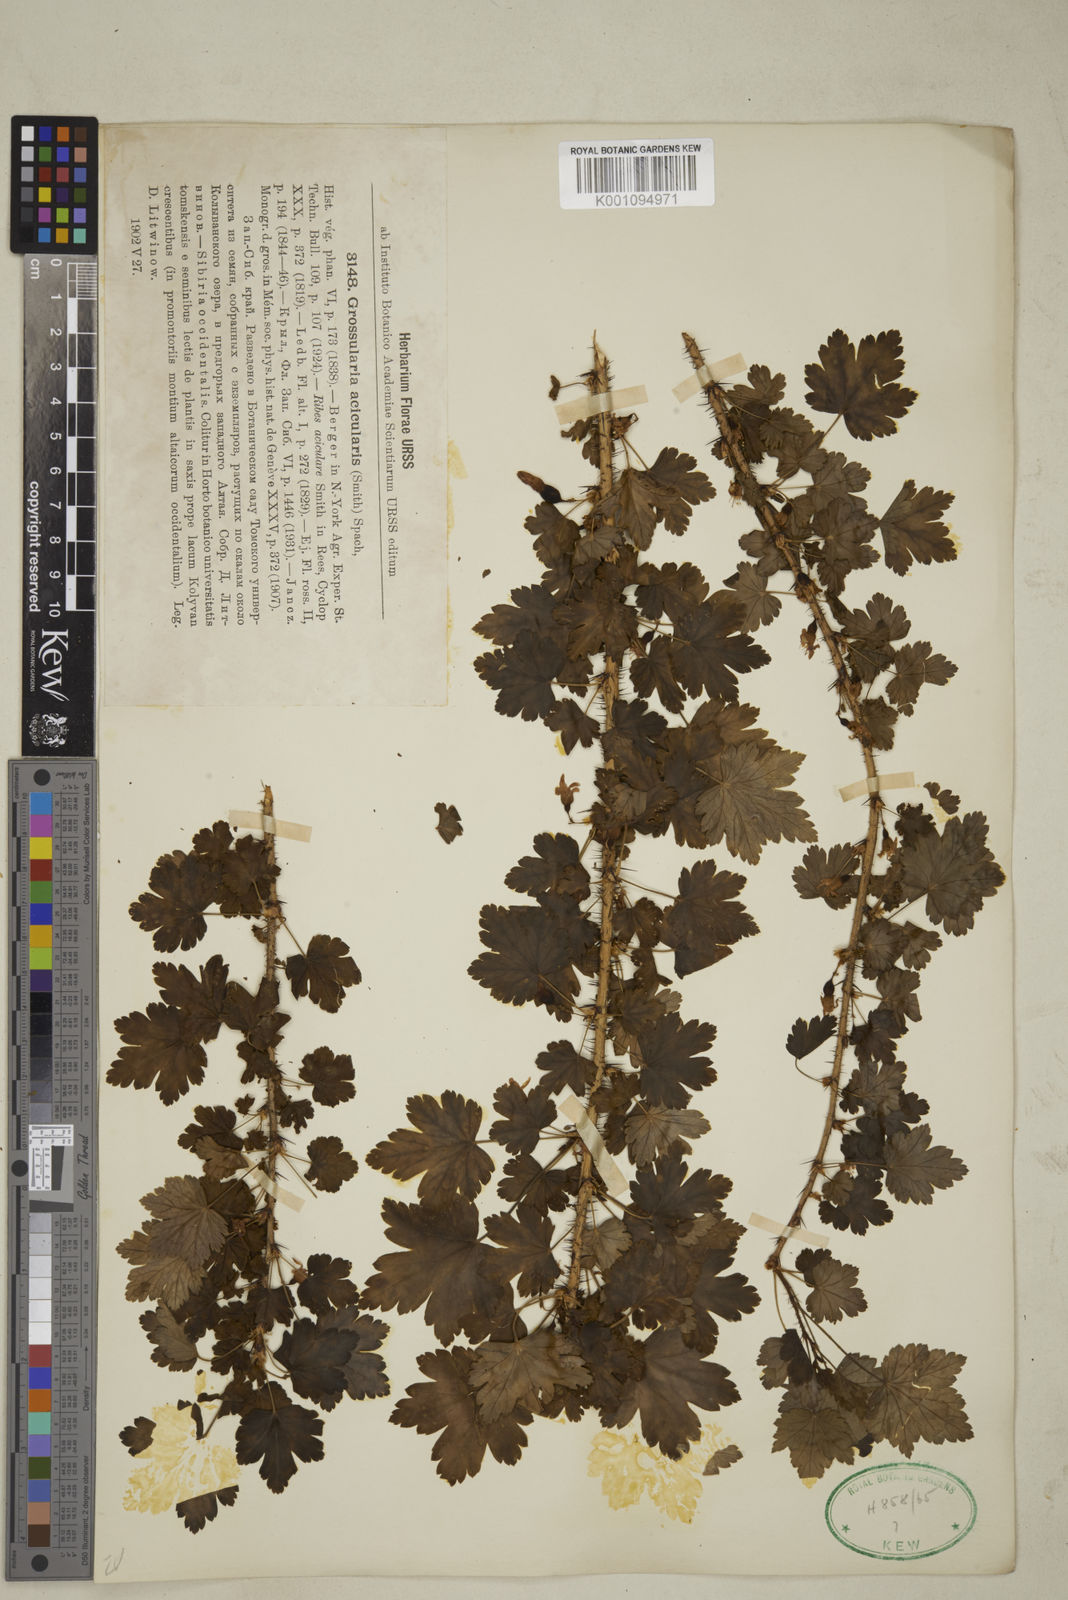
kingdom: Plantae
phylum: Tracheophyta
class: Magnoliopsida
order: Saxifragales
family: Grossulariaceae
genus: Ribes
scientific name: Ribes aciculare
